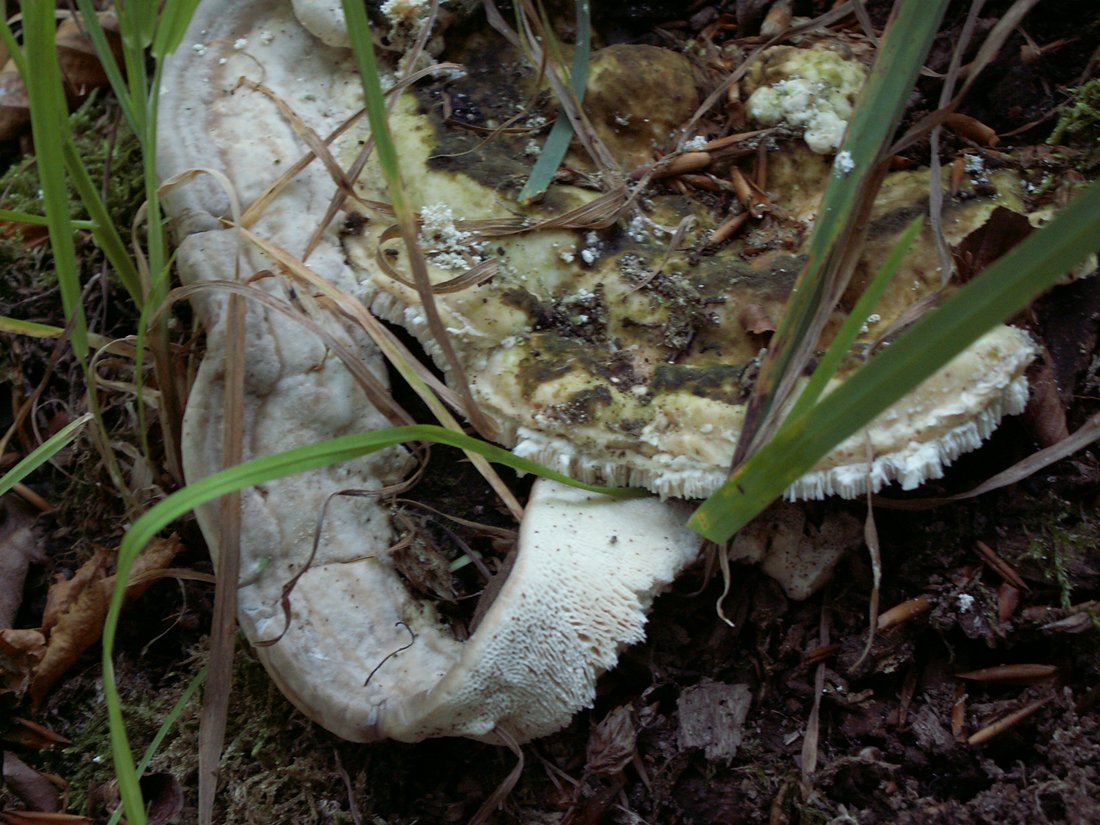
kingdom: Fungi
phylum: Basidiomycota
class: Agaricomycetes
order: Polyporales
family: Polyporaceae
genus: Trametes
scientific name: Trametes gibbosa
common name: puklet læderporesvamp
